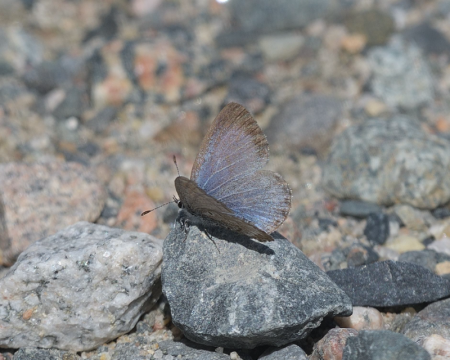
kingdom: Animalia
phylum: Arthropoda
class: Insecta
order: Lepidoptera
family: Lycaenidae
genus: Celastrina
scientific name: Celastrina lucia
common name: Northern Spring Azure
